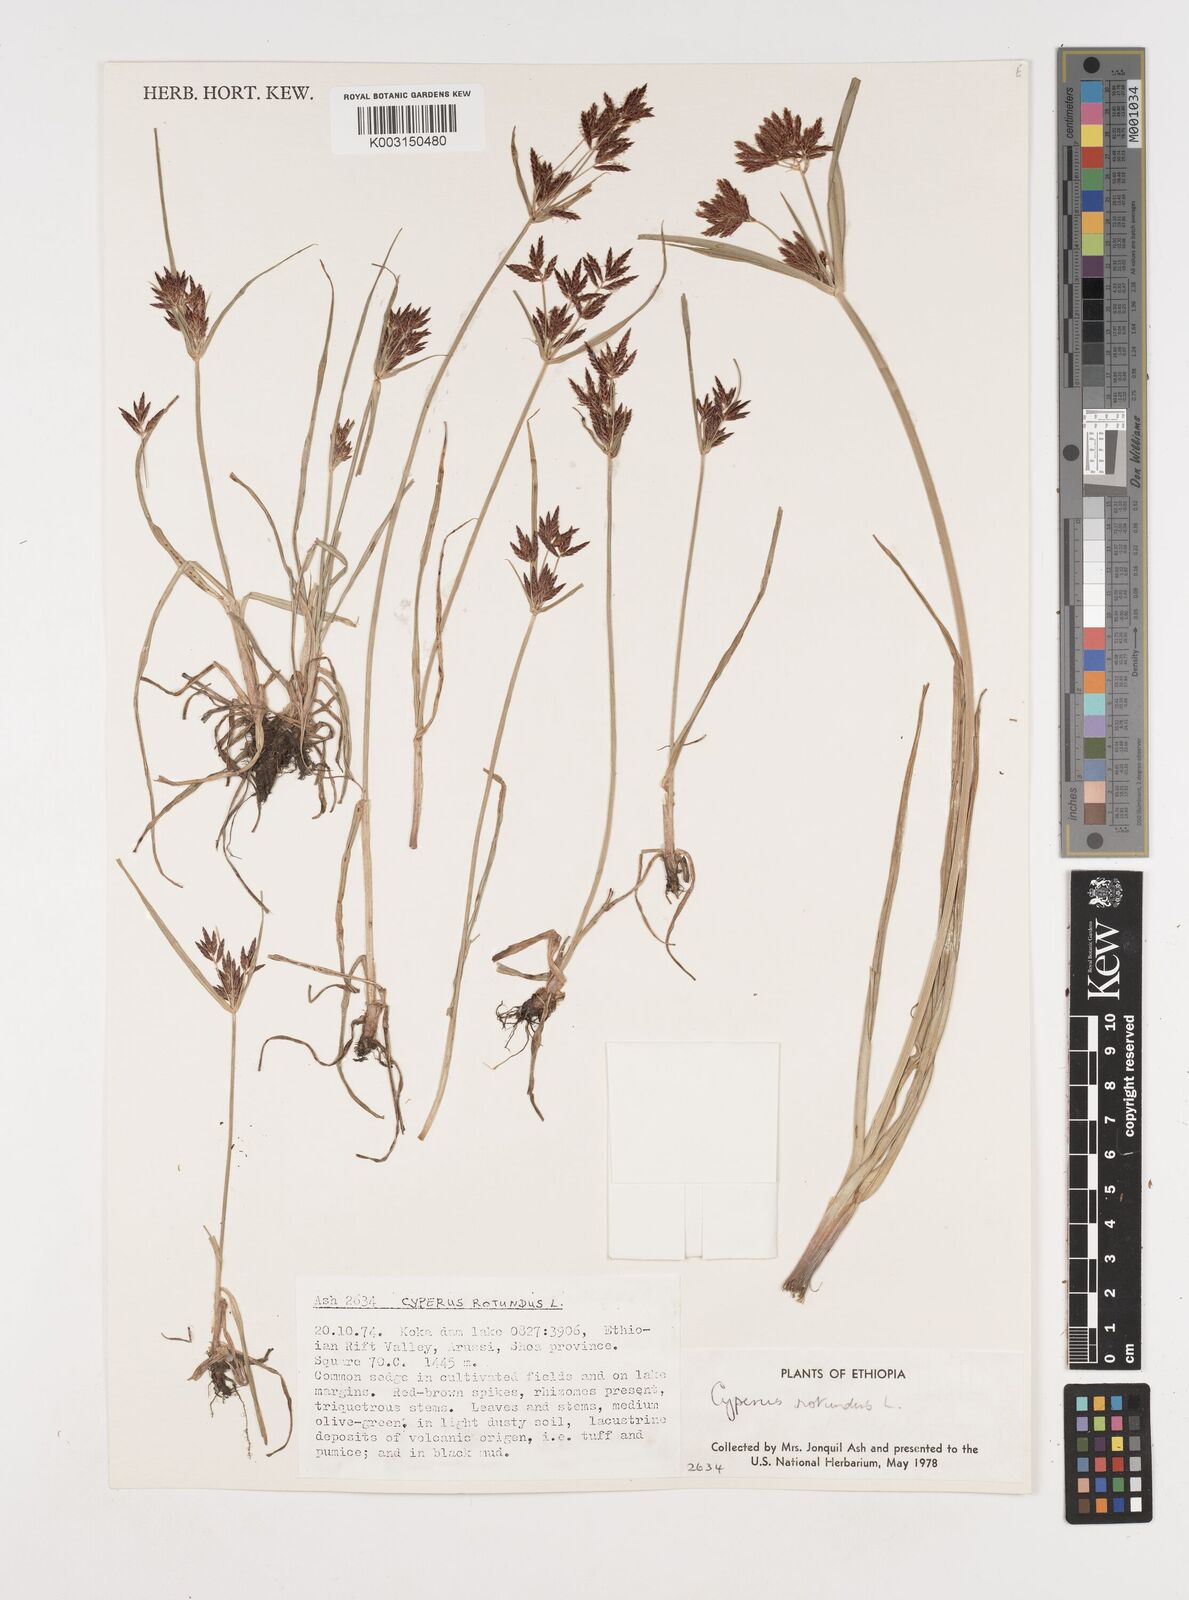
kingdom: Plantae
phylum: Tracheophyta
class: Liliopsida
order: Poales
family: Cyperaceae
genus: Cyperus
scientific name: Cyperus rotundus
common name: Nutgrass
